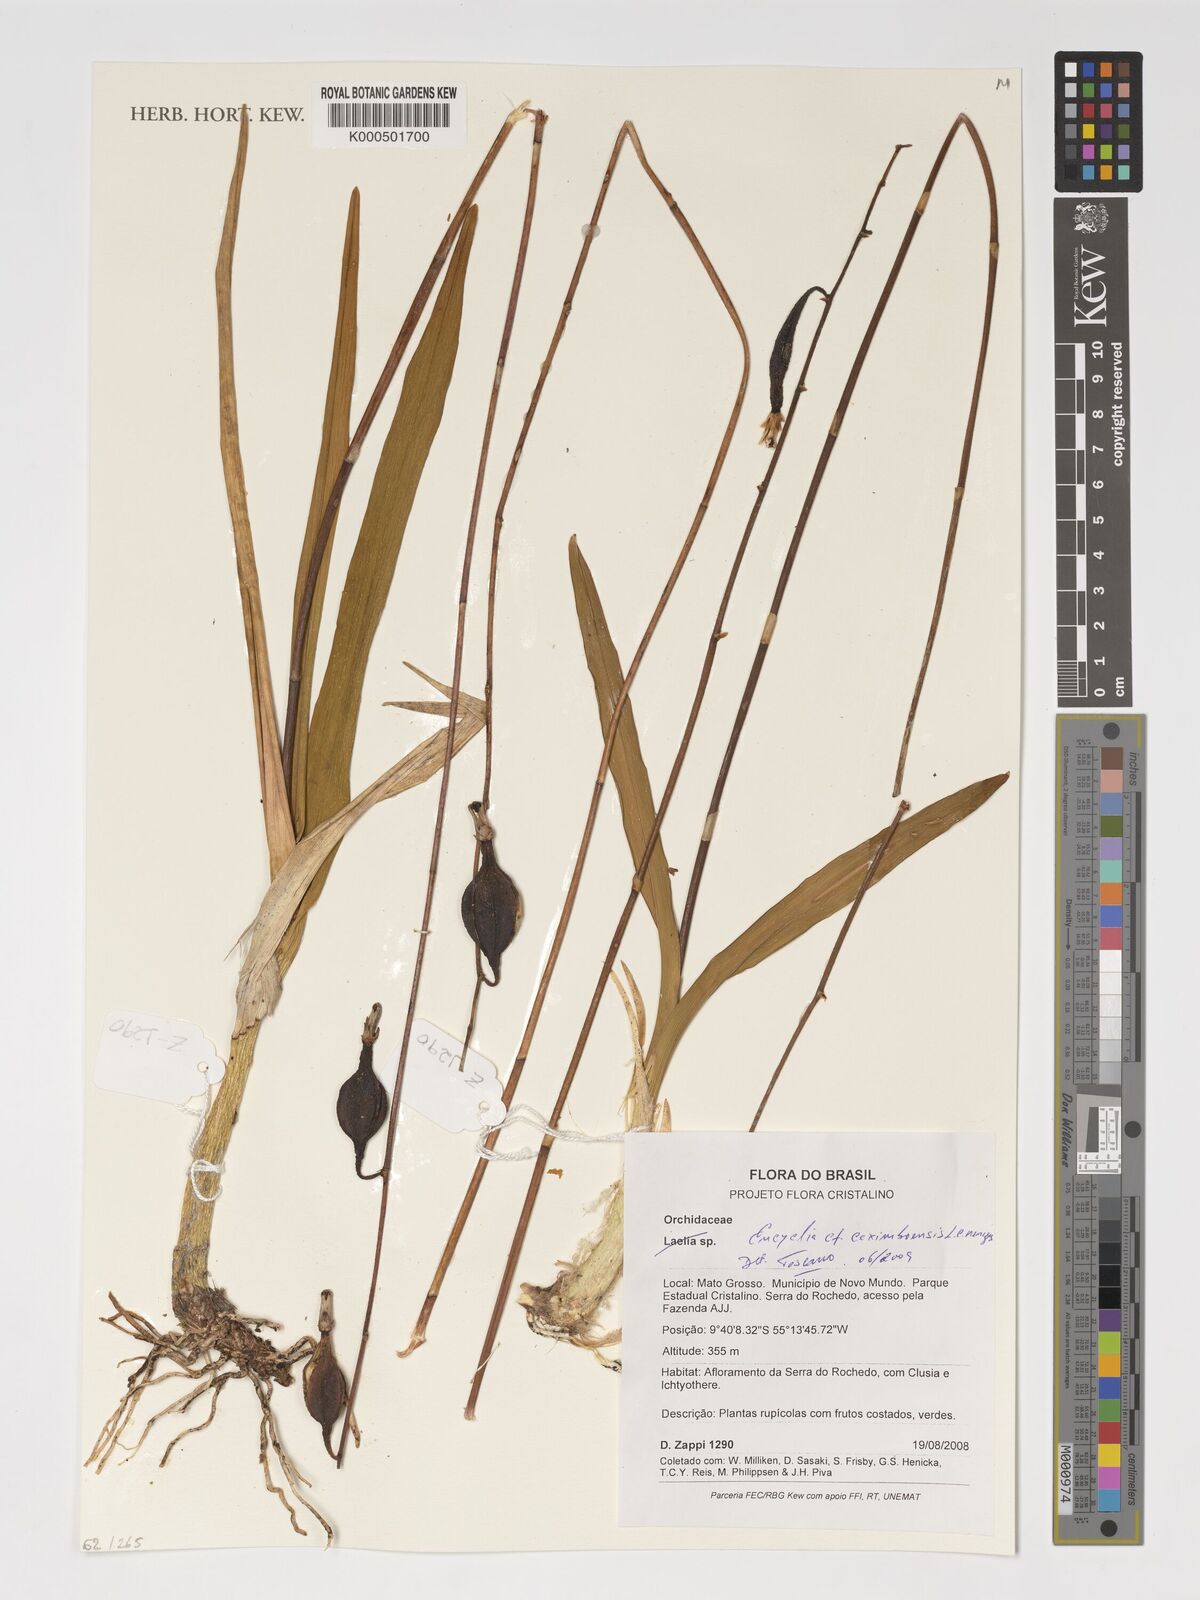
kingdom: Plantae
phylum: Tracheophyta
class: Liliopsida
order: Asparagales
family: Orchidaceae
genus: Encyclia
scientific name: Encyclia xerophytica
